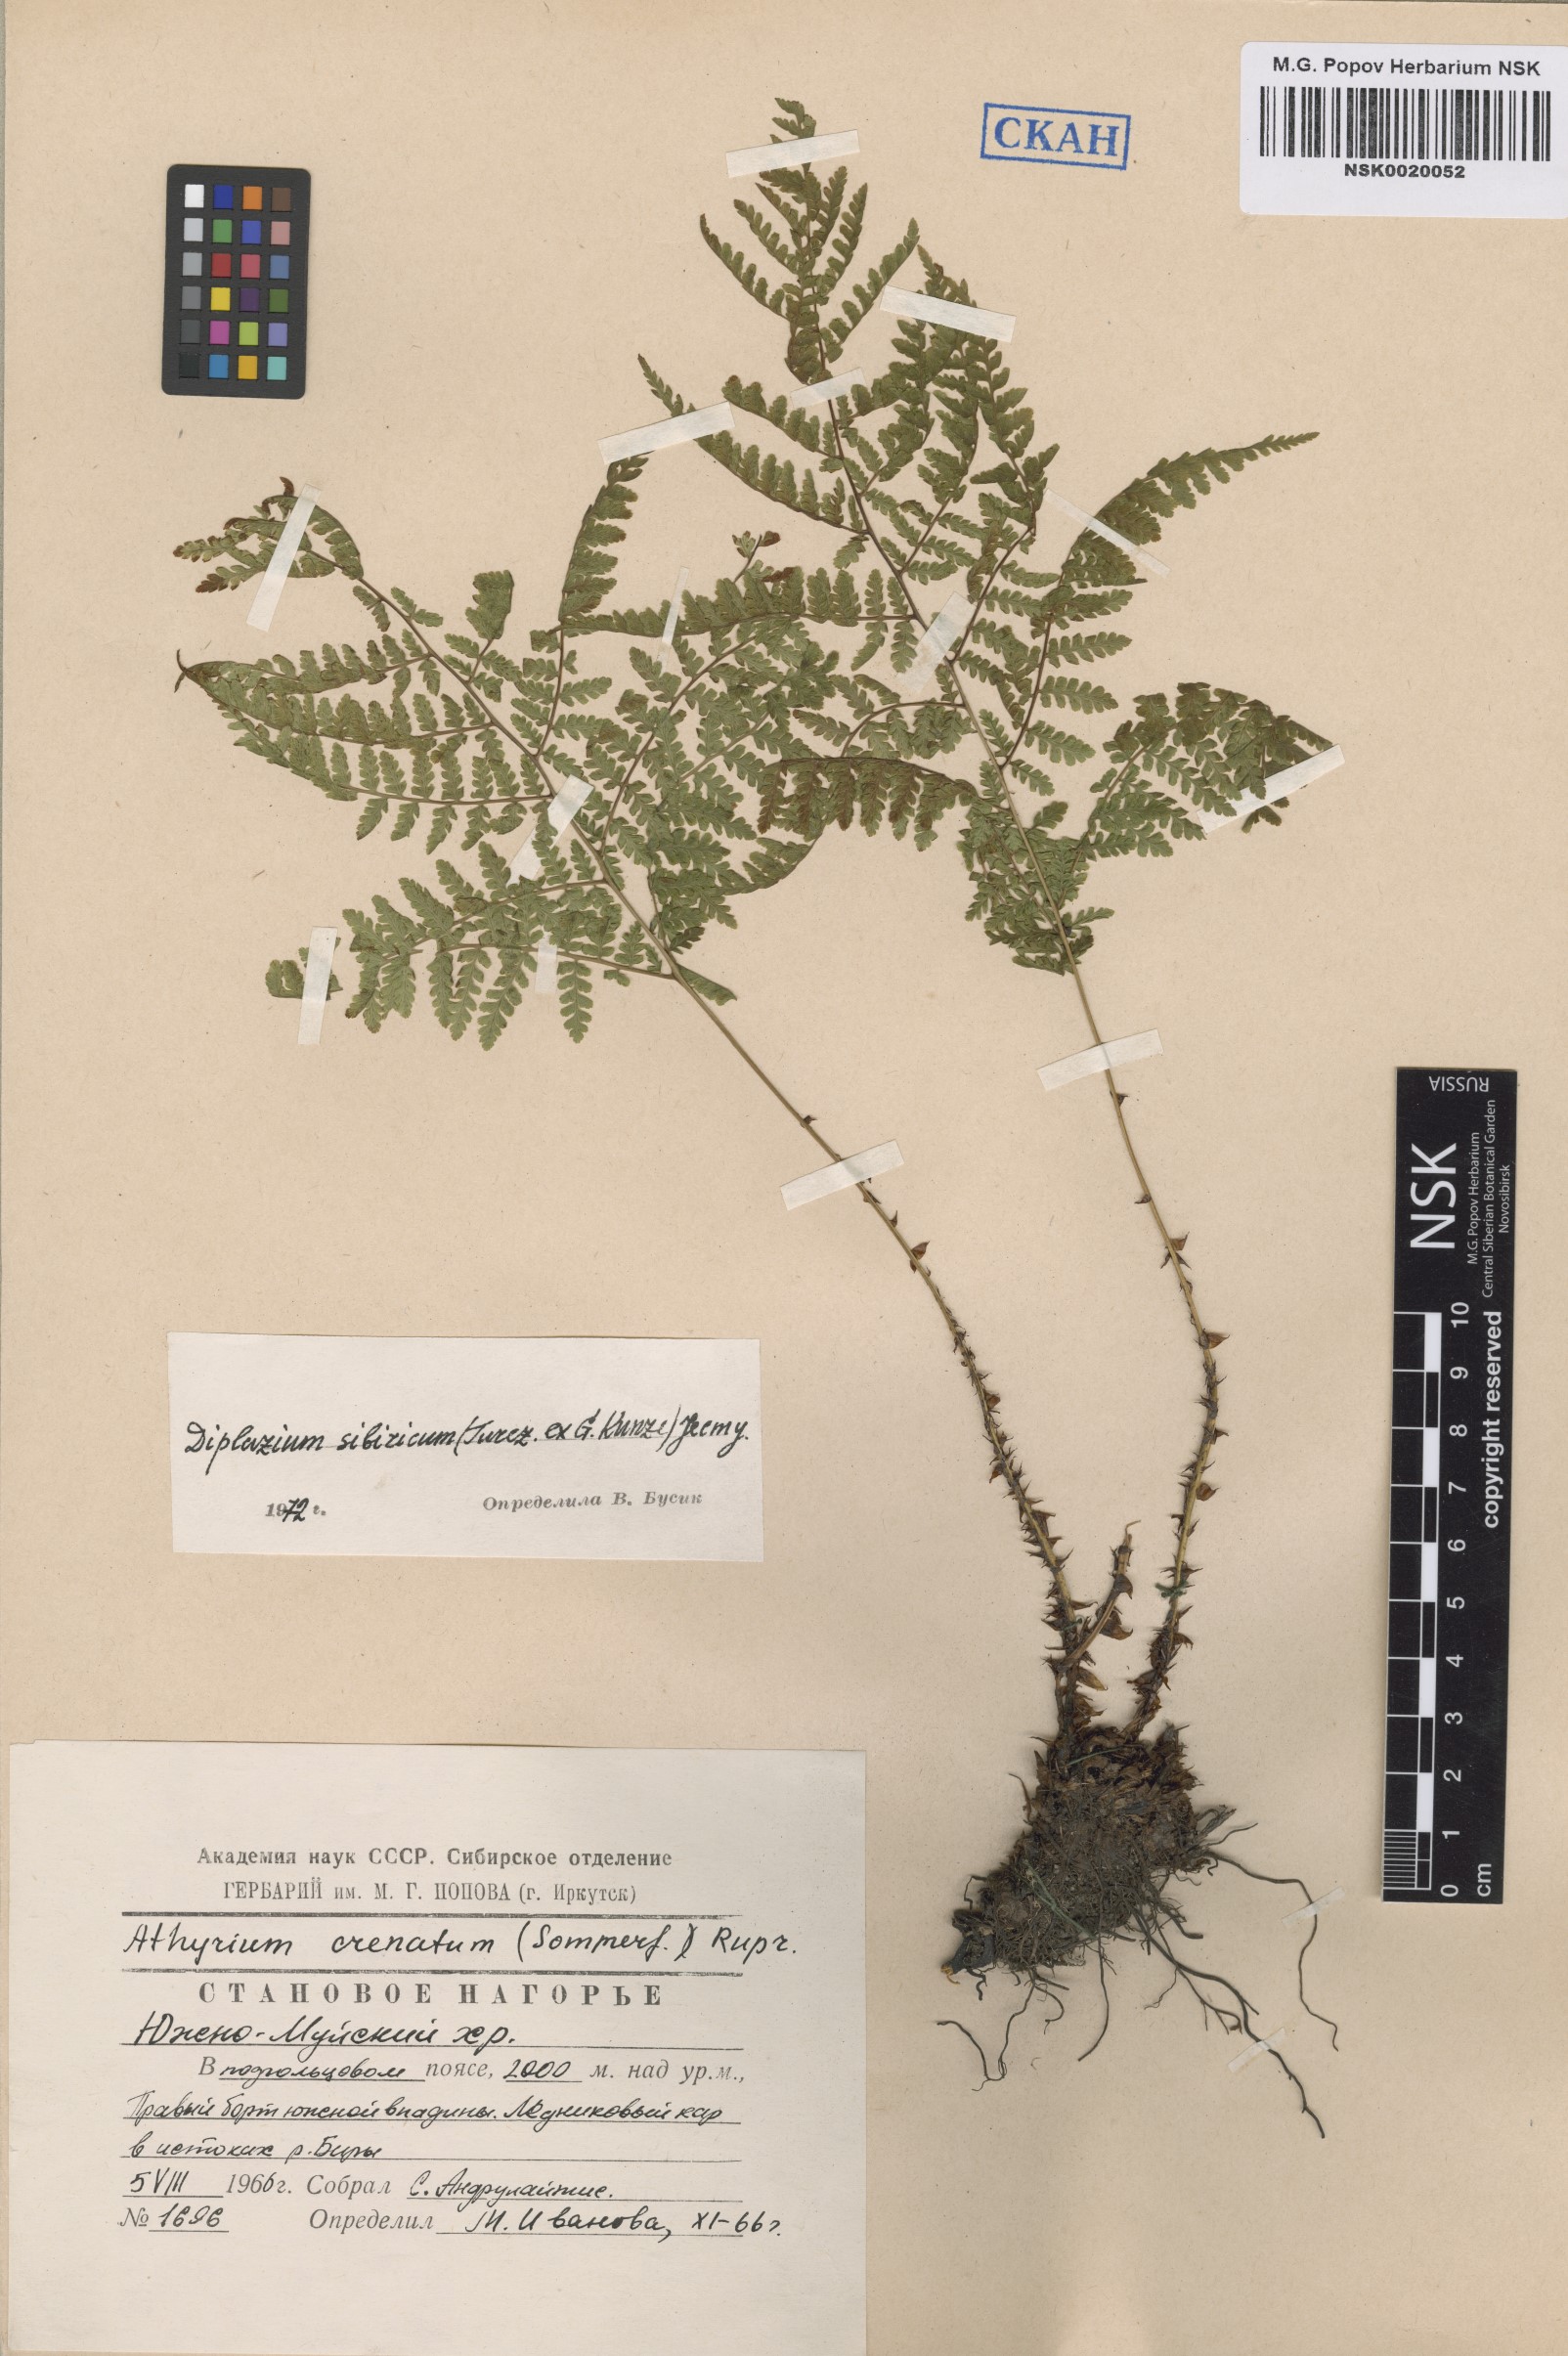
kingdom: Plantae
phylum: Tracheophyta
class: Polypodiopsida
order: Polypodiales
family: Athyriaceae
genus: Diplazium
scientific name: Diplazium sibiricum
